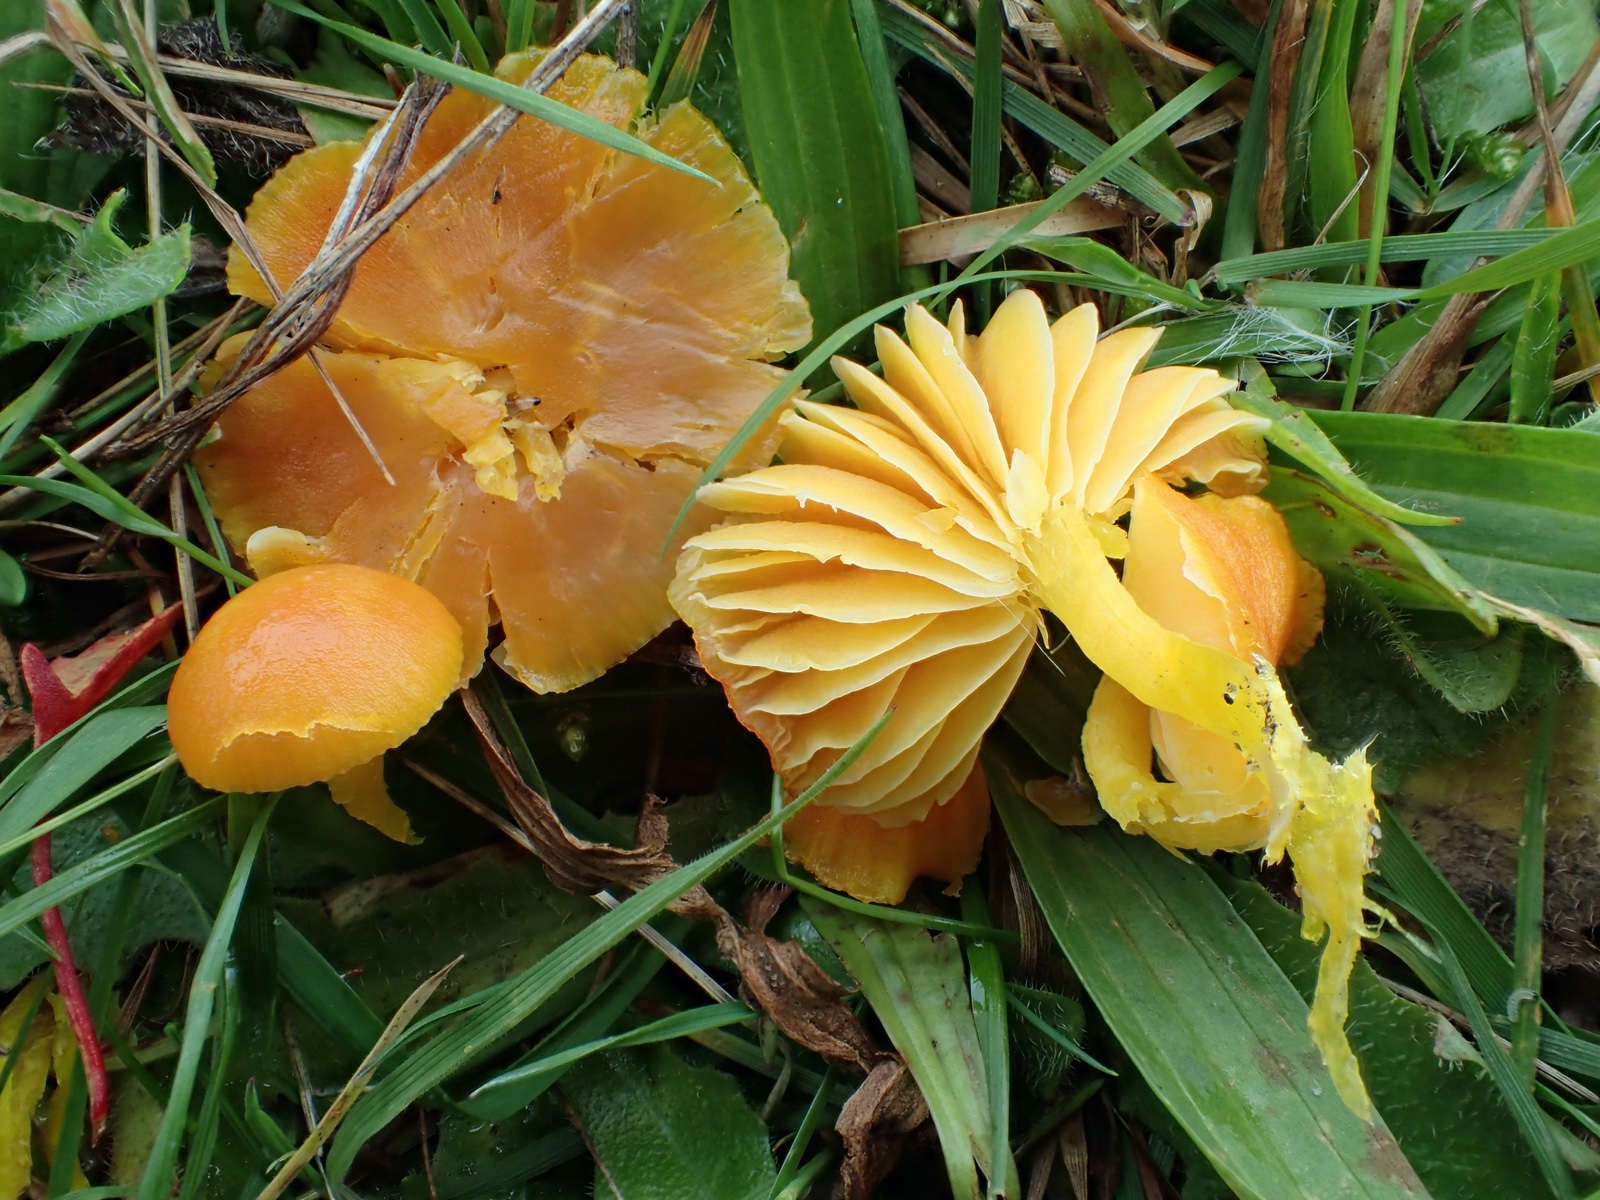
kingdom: Fungi
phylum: Basidiomycota
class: Agaricomycetes
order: Agaricales
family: Hygrophoraceae
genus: Hygrocybe
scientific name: Hygrocybe ceracea
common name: voksgul vokshat
